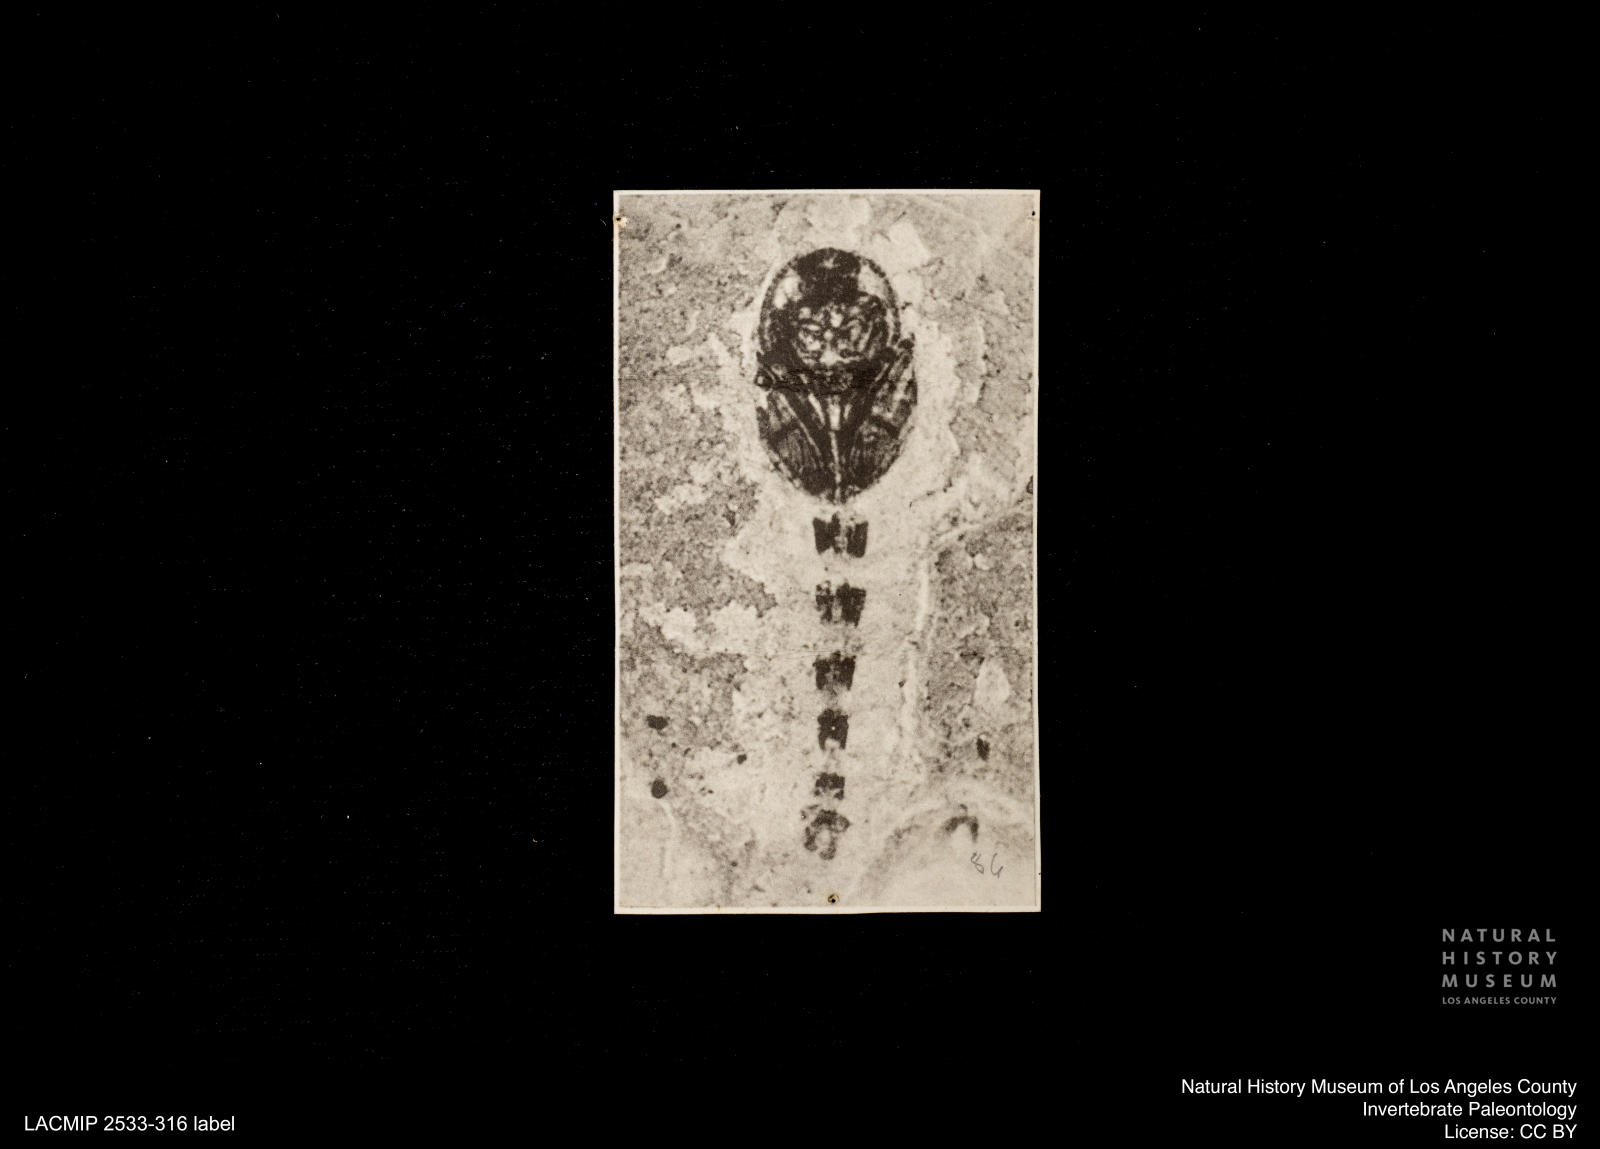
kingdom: Animalia
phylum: Arthropoda
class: Insecta
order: Diptera
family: Ceratopogonidae
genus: Ceratopogon
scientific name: Ceratopogon
